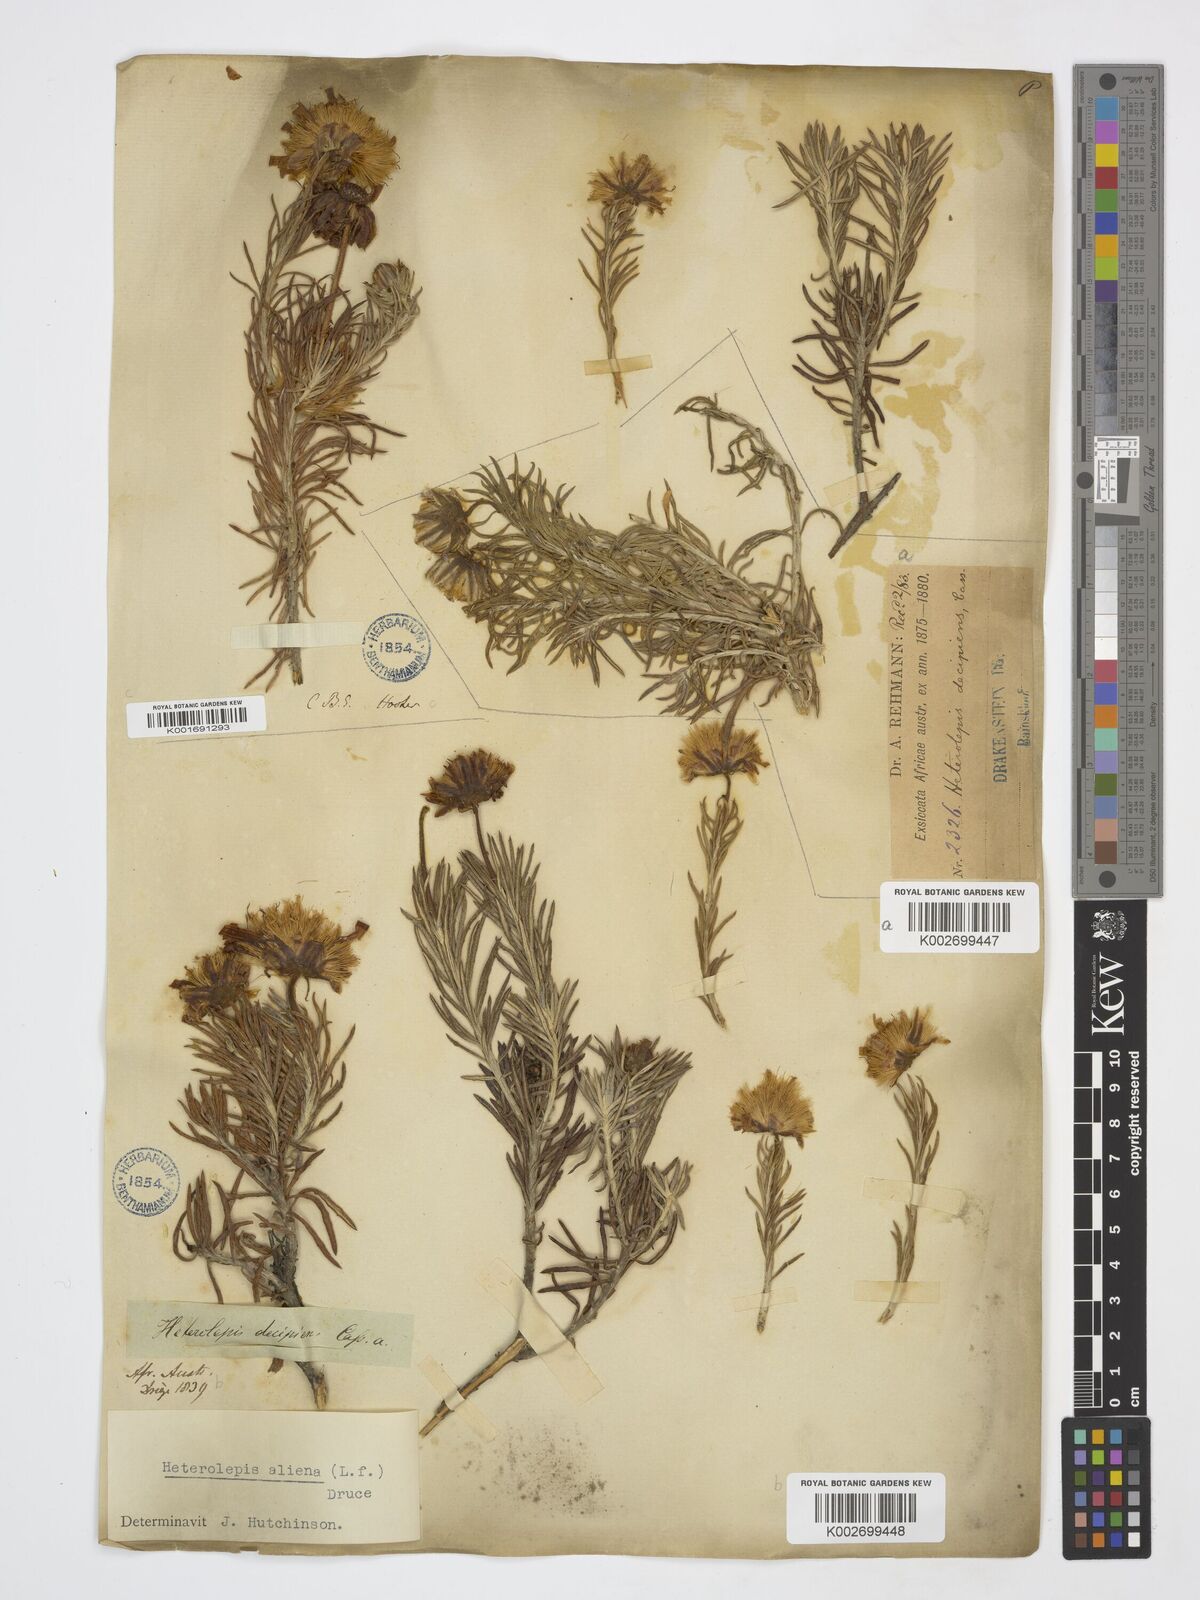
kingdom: Plantae
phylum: Tracheophyta
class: Magnoliopsida
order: Asterales
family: Asteraceae
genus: Heterolepis
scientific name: Heterolepis aliena
